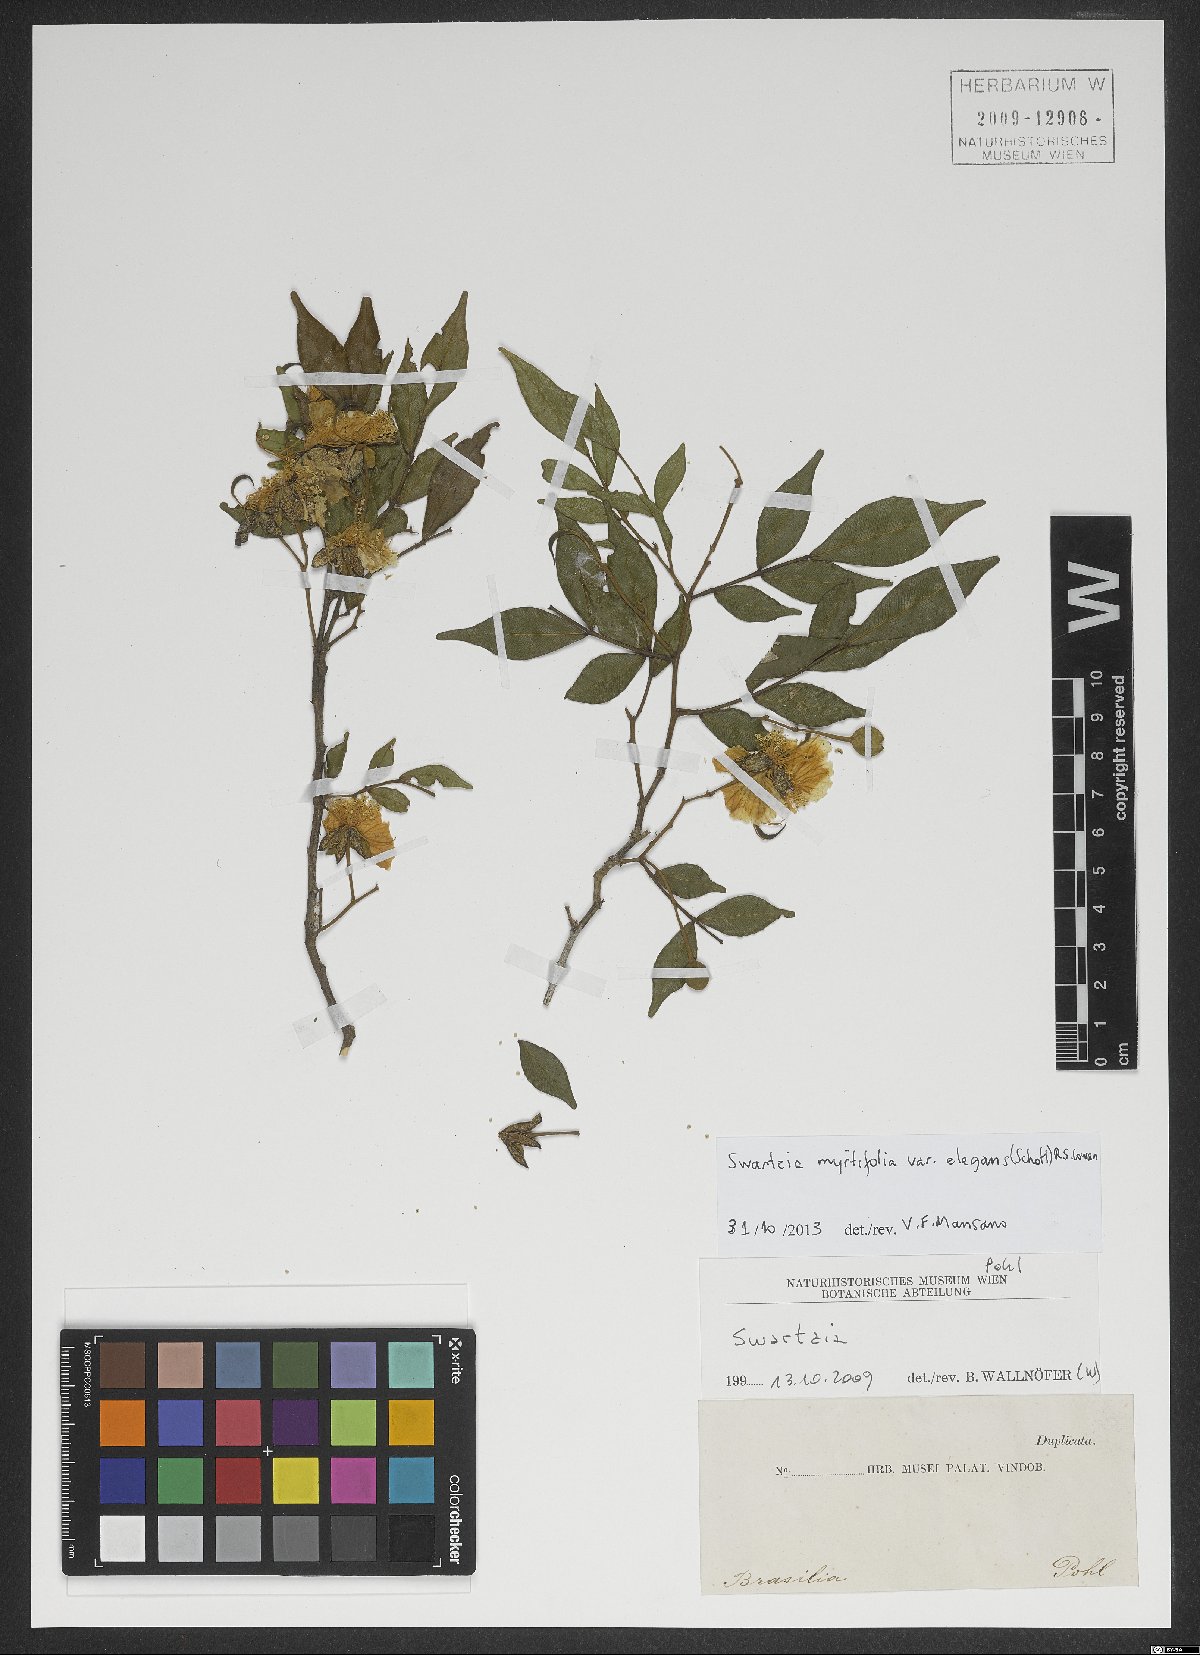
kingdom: Plantae
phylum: Tracheophyta
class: Magnoliopsida
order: Fabales
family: Fabaceae
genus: Swartzia
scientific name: Swartzia myrtifolia
